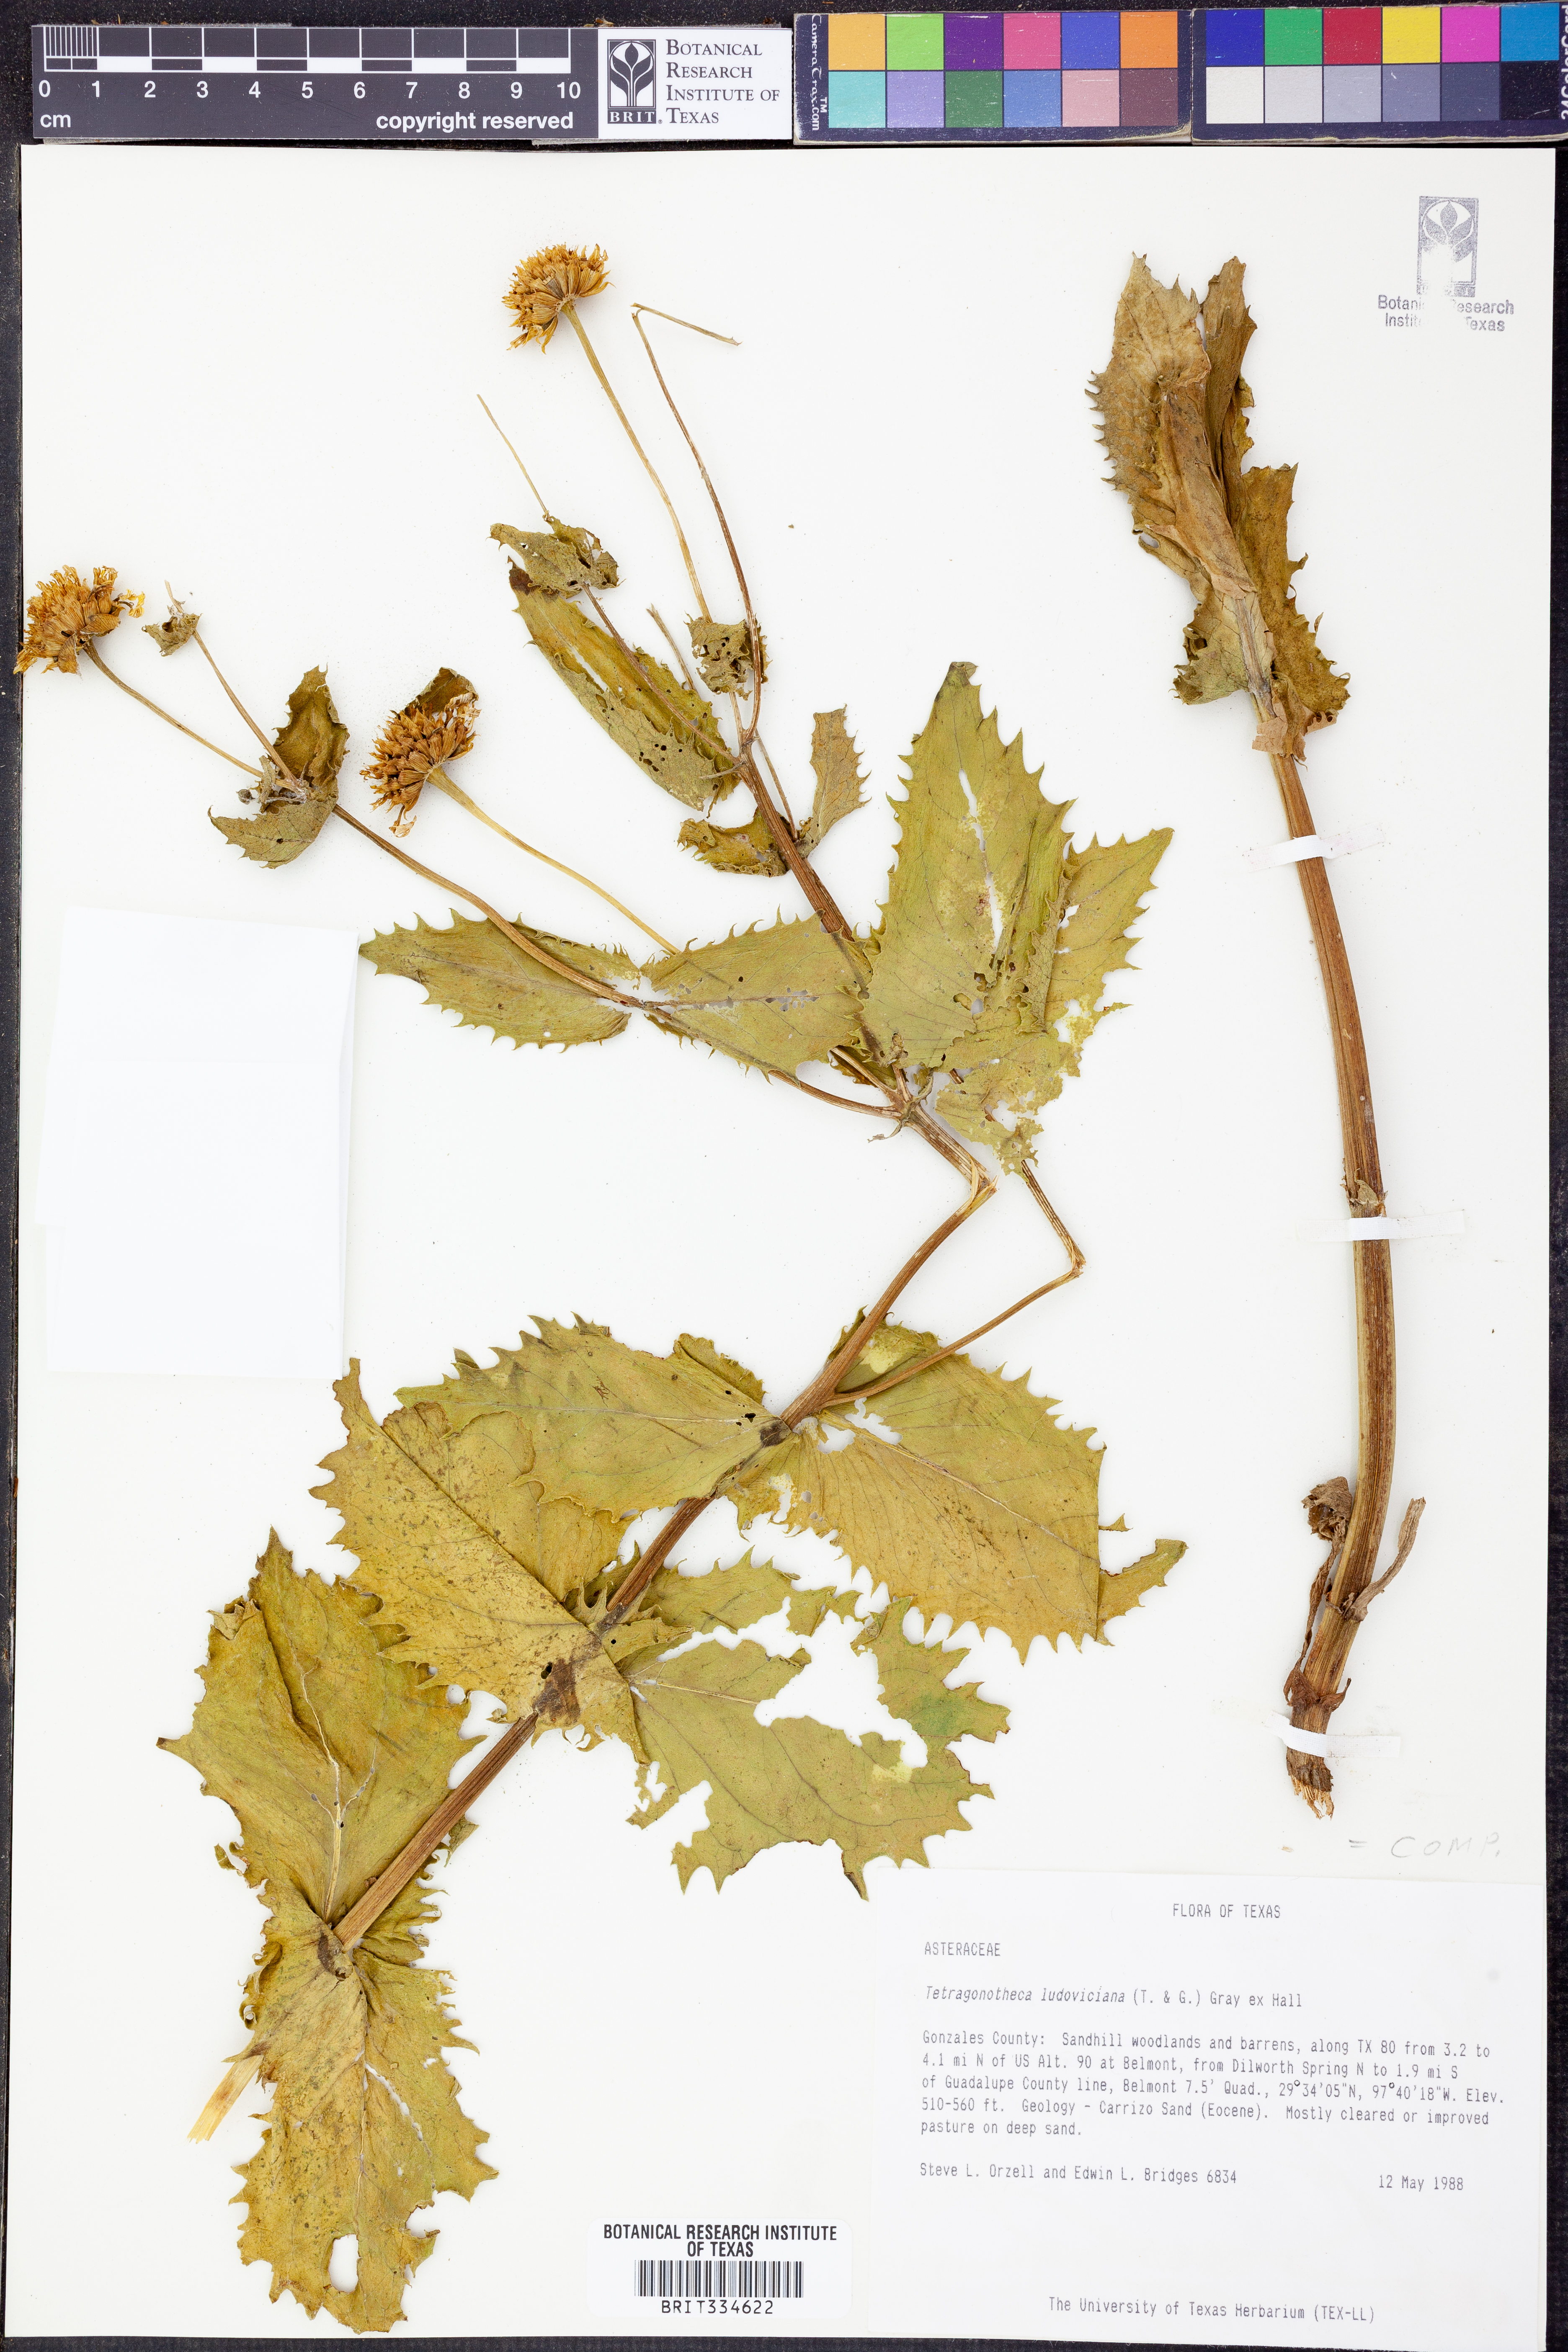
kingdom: Plantae
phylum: Tracheophyta
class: Magnoliopsida
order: Asterales
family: Asteraceae
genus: Tetragonotheca
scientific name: Tetragonotheca ludoviciana
